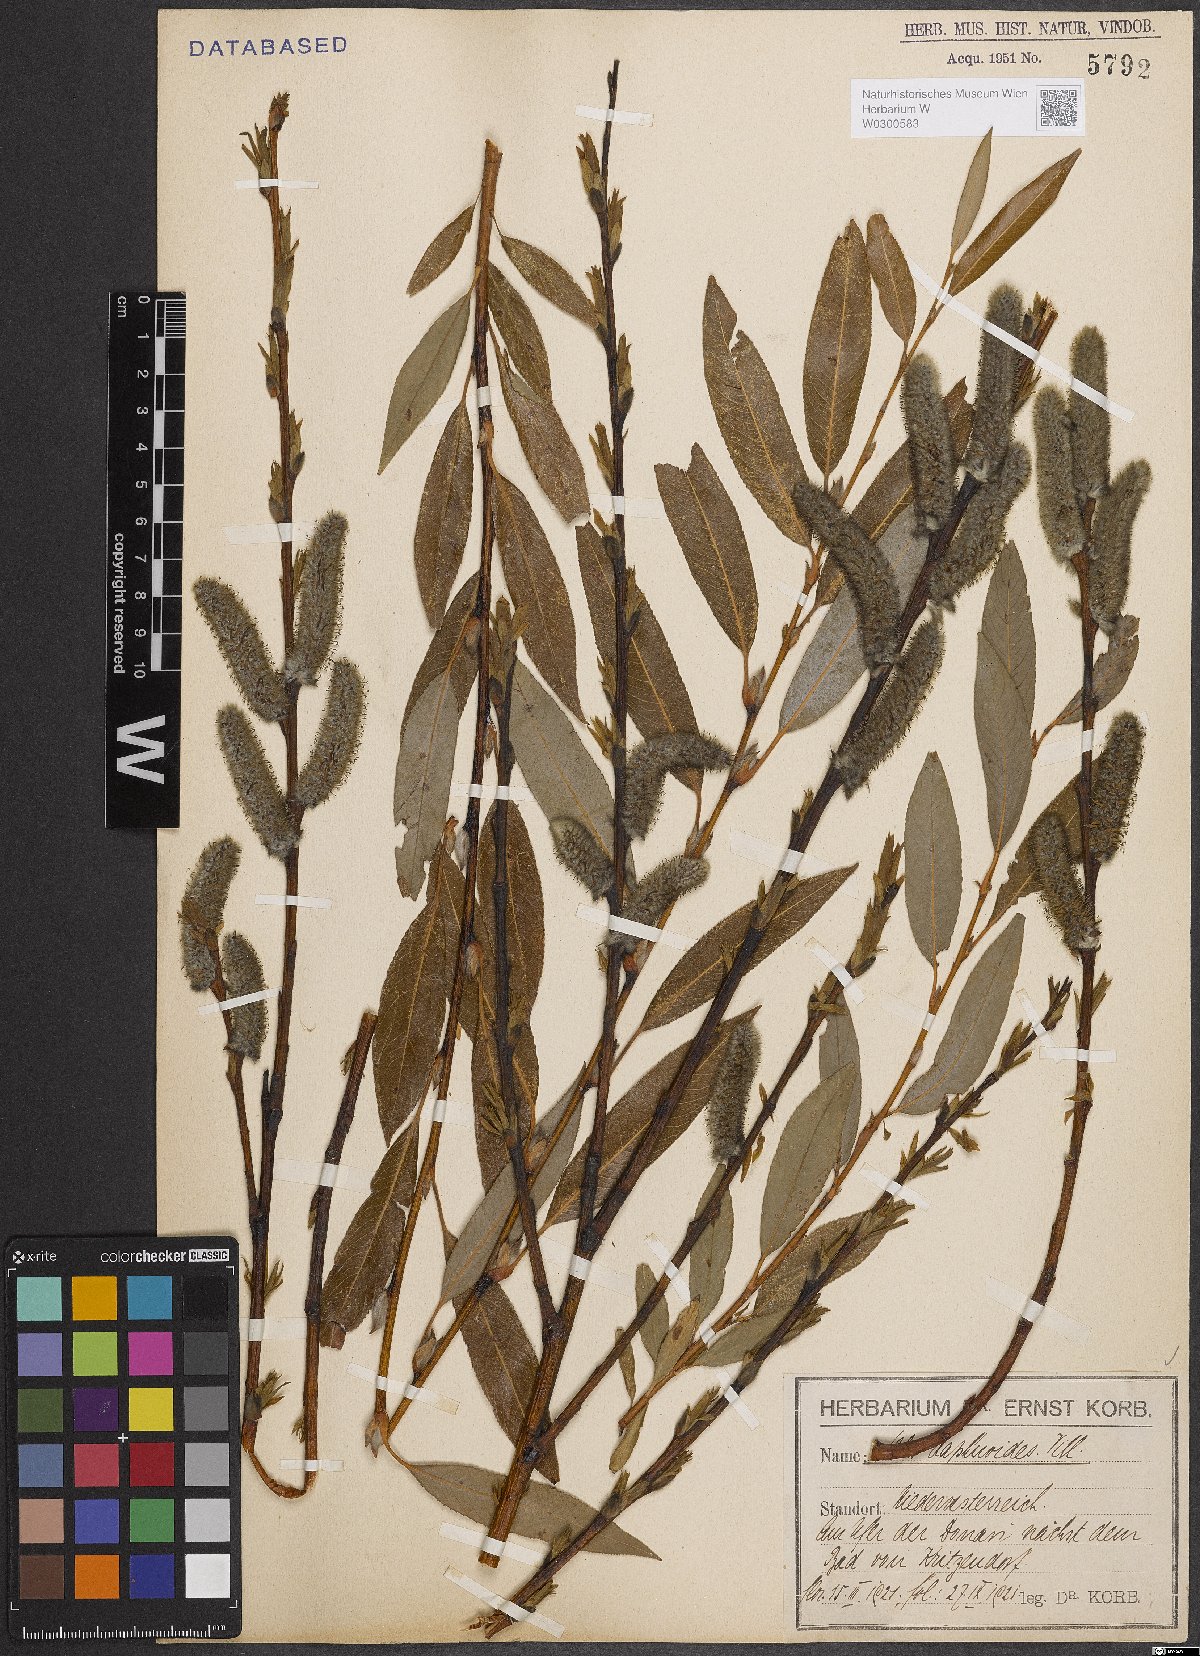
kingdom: Plantae
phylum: Tracheophyta
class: Magnoliopsida
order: Malpighiales
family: Salicaceae
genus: Salix
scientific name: Salix daphnoides
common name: European violet-willow
